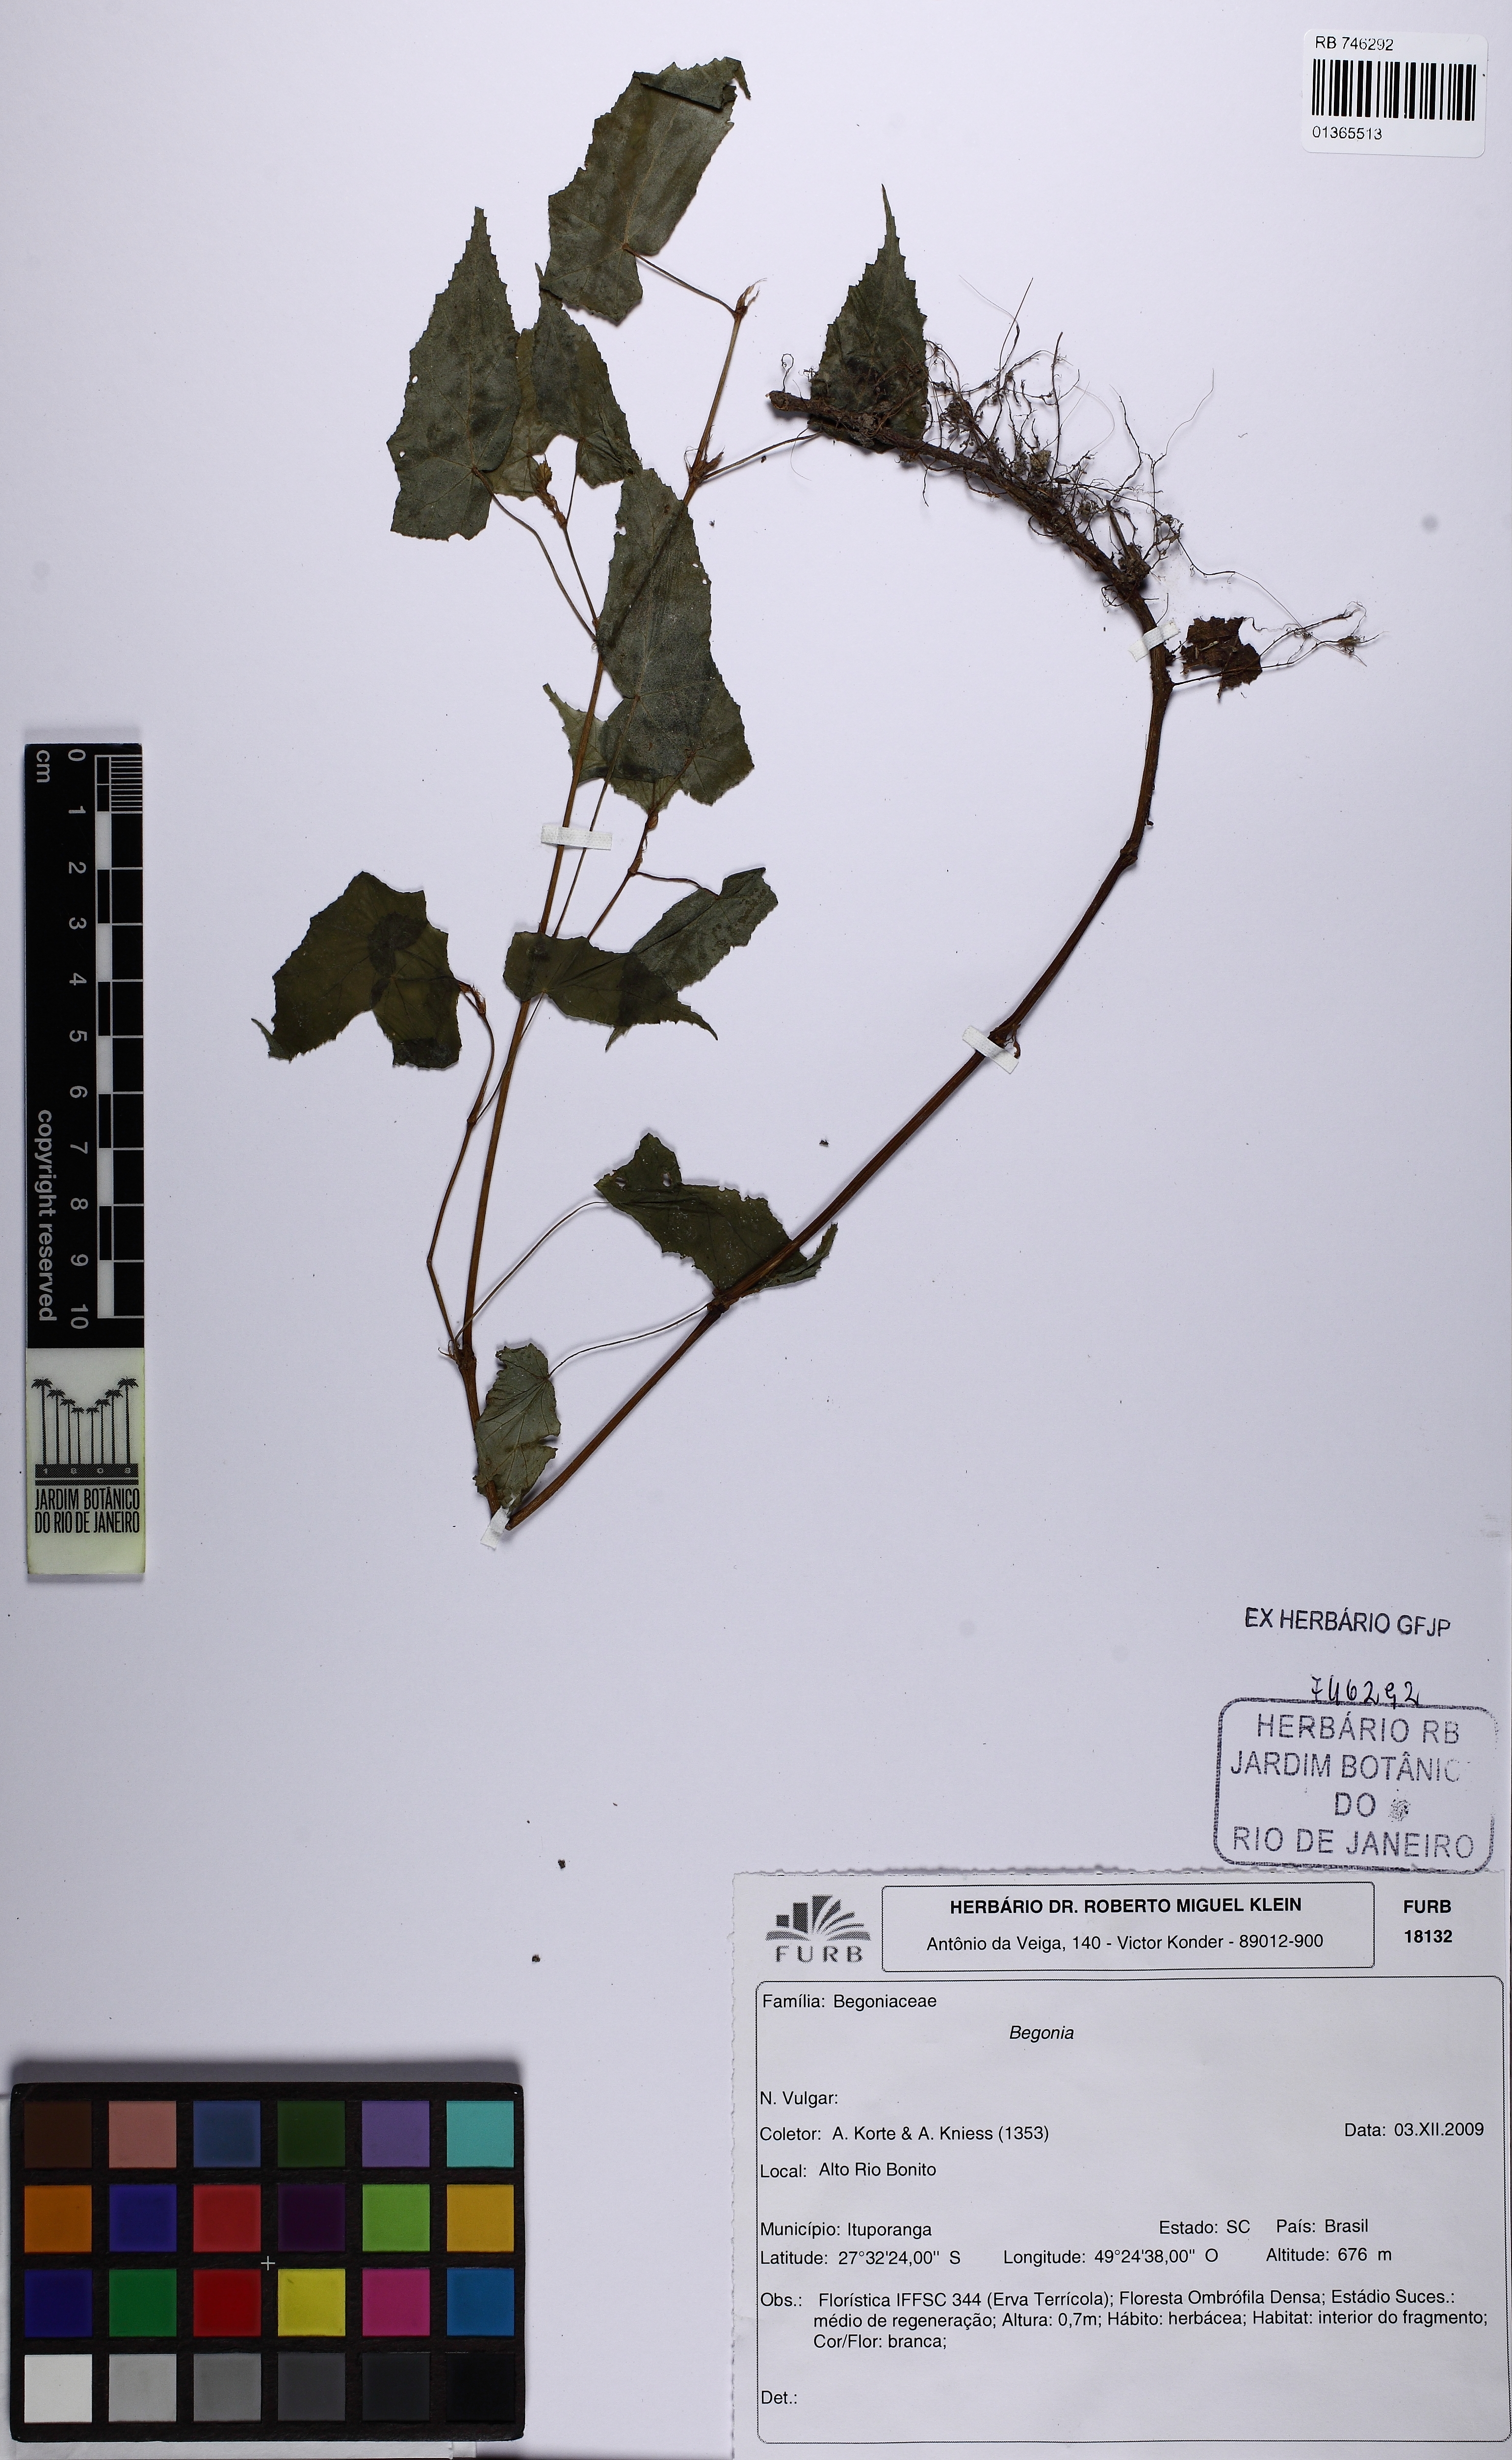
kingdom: Plantae
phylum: Tracheophyta
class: Magnoliopsida
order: Cucurbitales
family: Begoniaceae
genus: Begonia
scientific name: Begonia isopterocarpa
